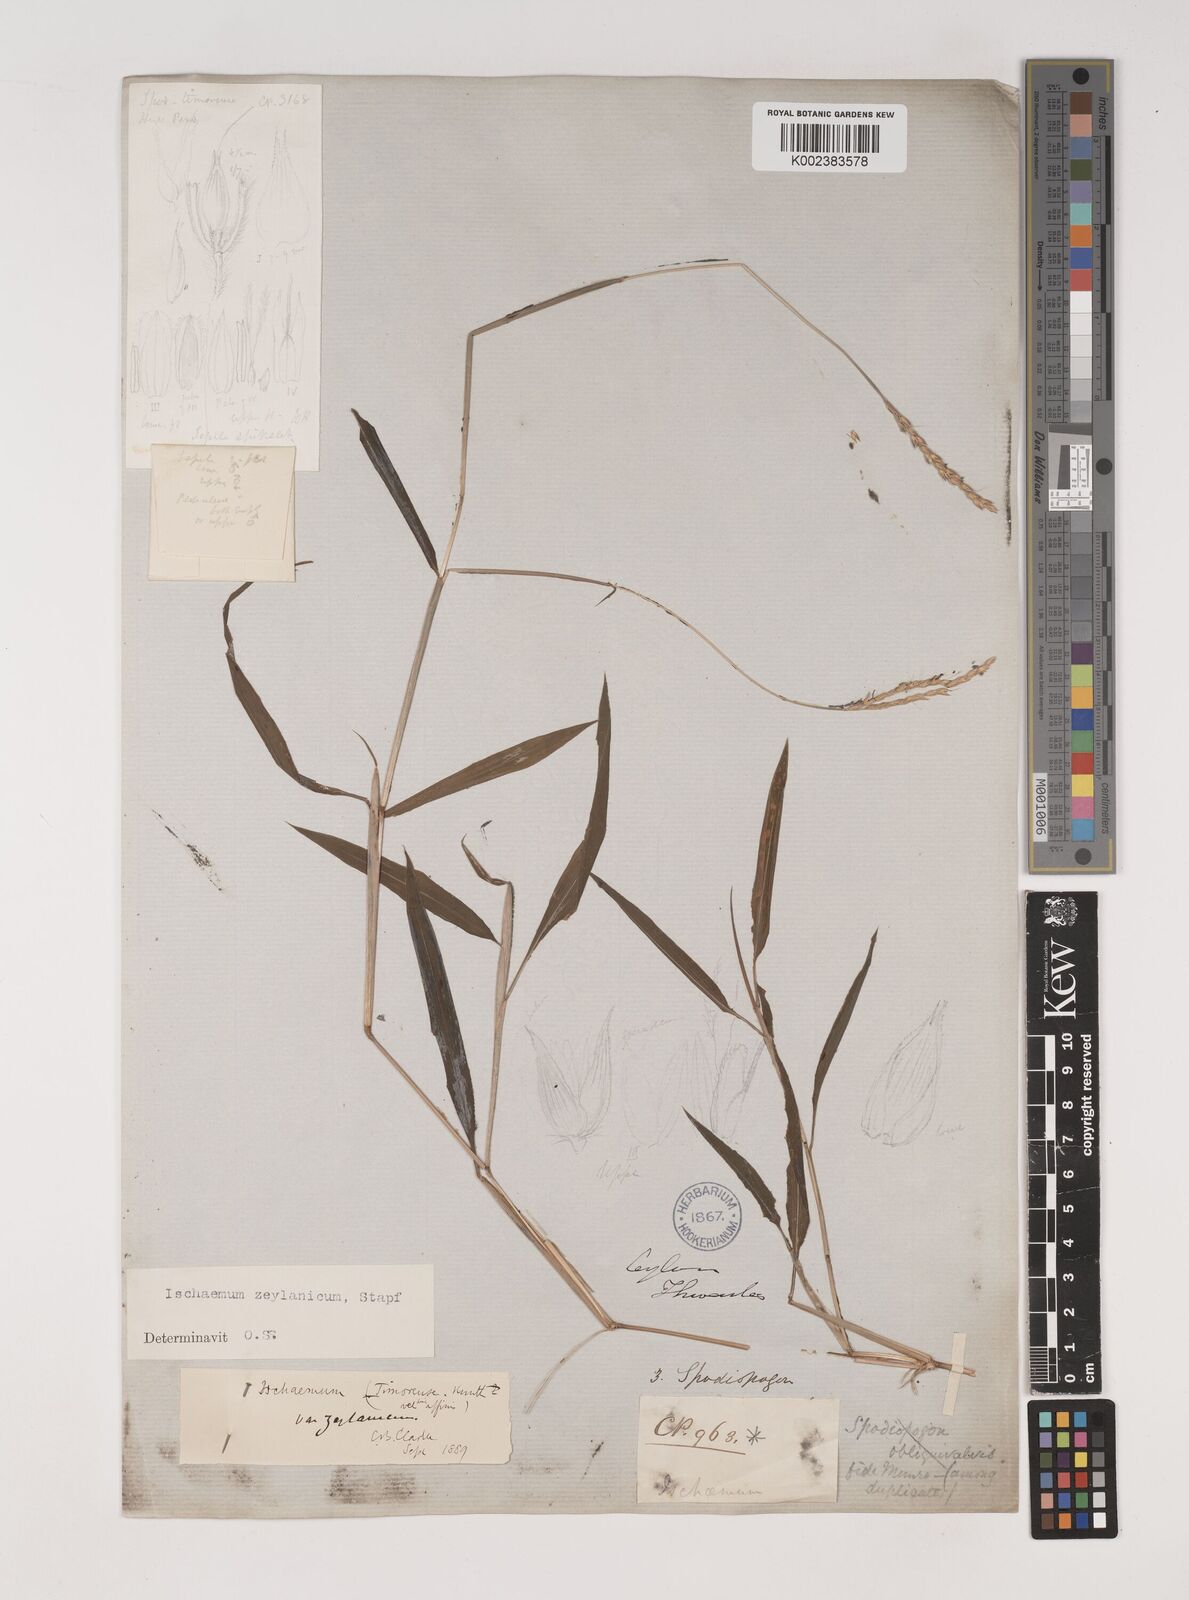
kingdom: Plantae
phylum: Tracheophyta
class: Liliopsida
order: Poales
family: Poaceae
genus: Ischaemum
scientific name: Ischaemum zeylanicola
